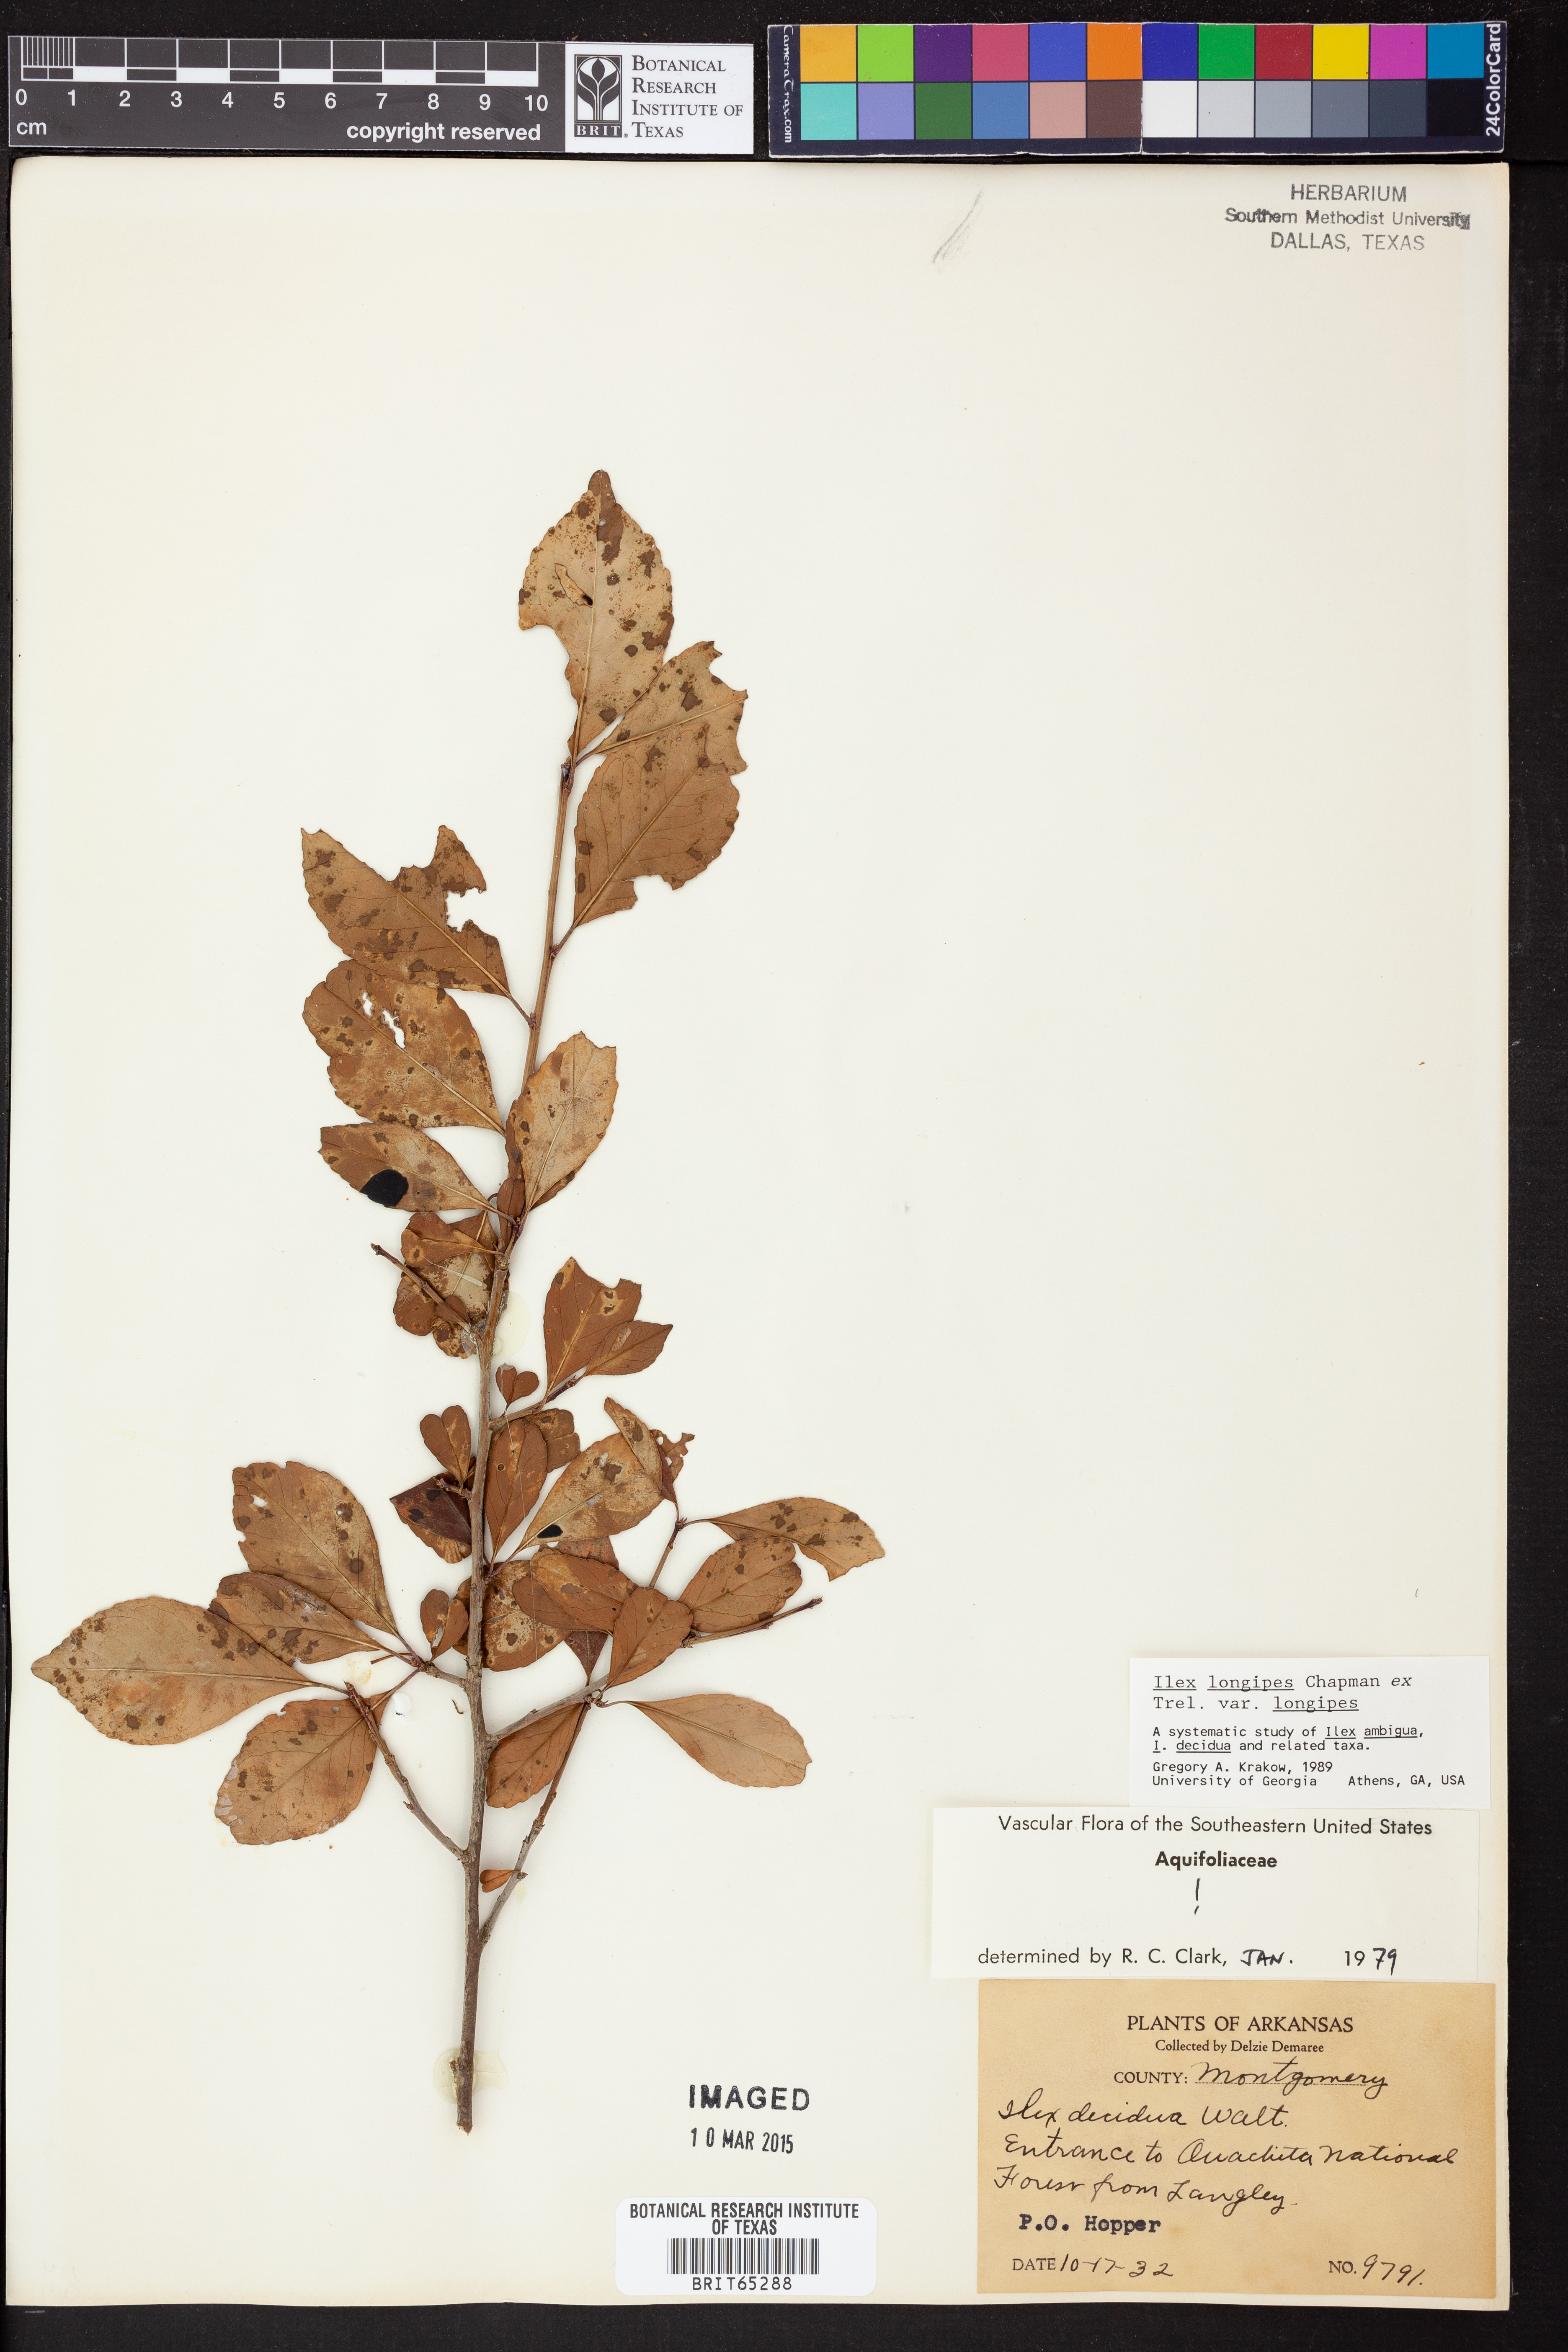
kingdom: Plantae
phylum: Tracheophyta
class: Magnoliopsida
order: Aquifoliales
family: Aquifoliaceae
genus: Ilex
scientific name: Ilex longipes
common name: Georgia holly
